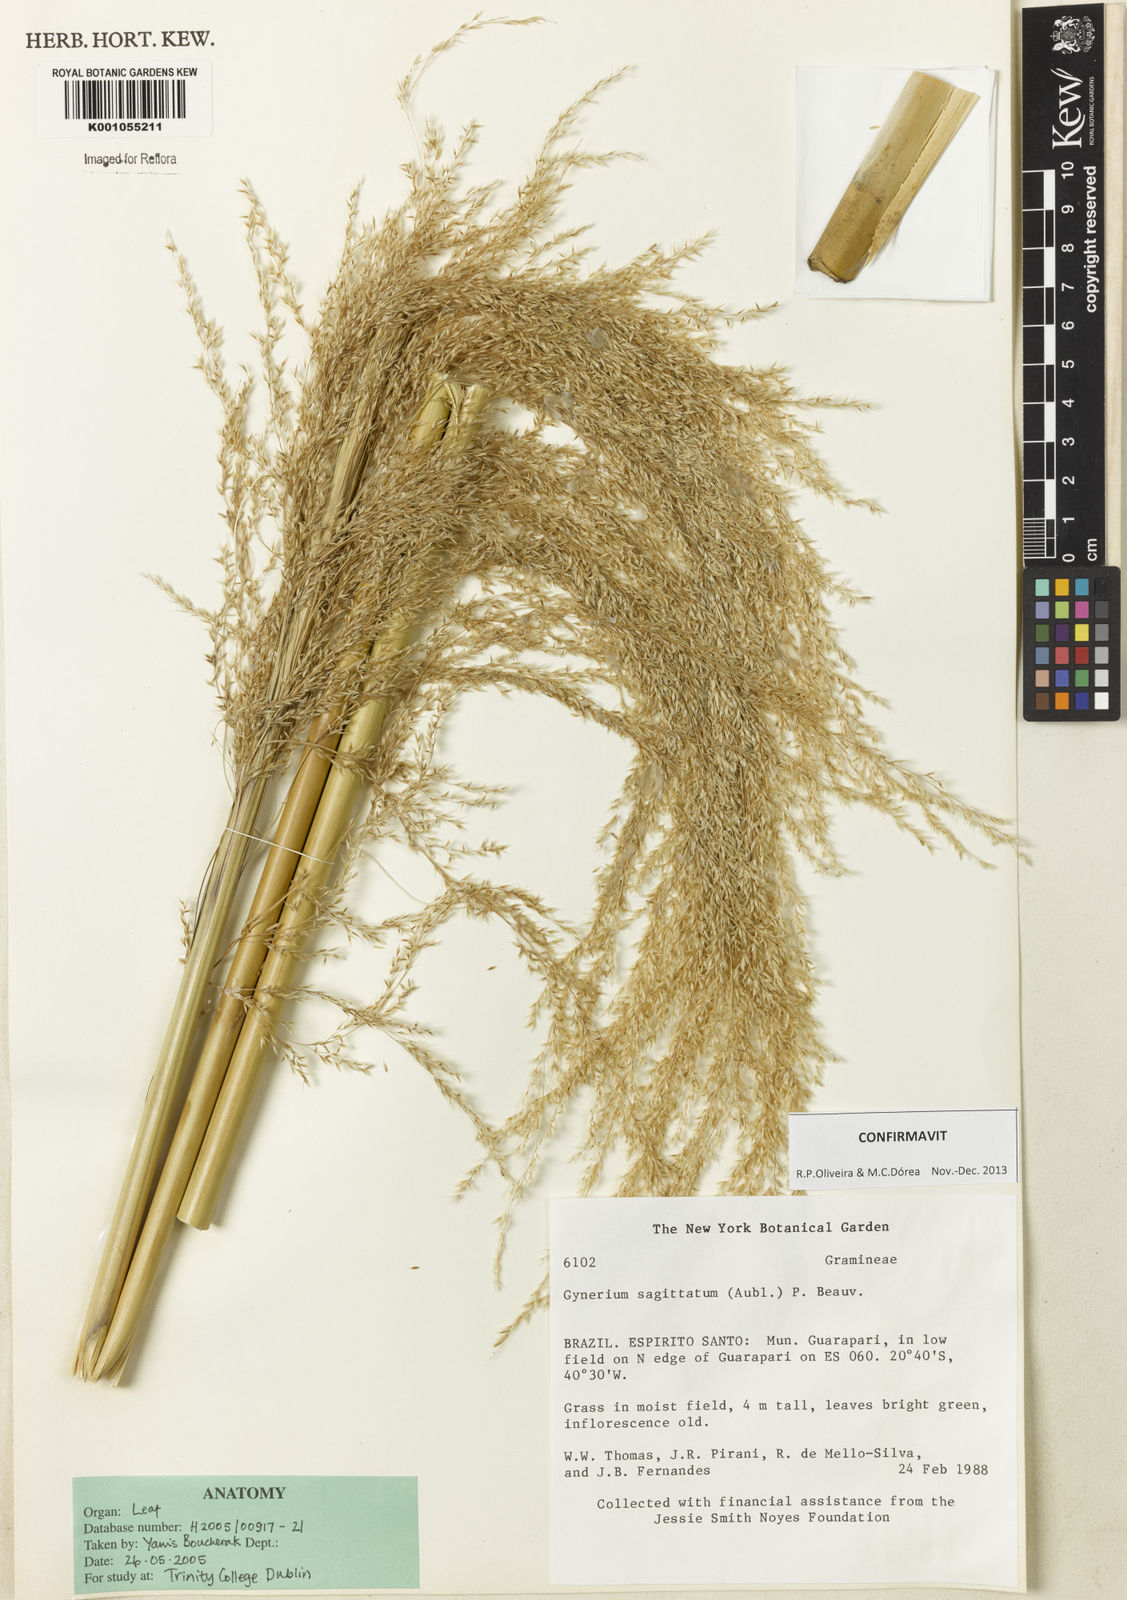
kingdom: Plantae
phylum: Tracheophyta
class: Liliopsida
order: Poales
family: Poaceae
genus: Gynerium
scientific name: Gynerium sagittatum
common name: Wild cane
